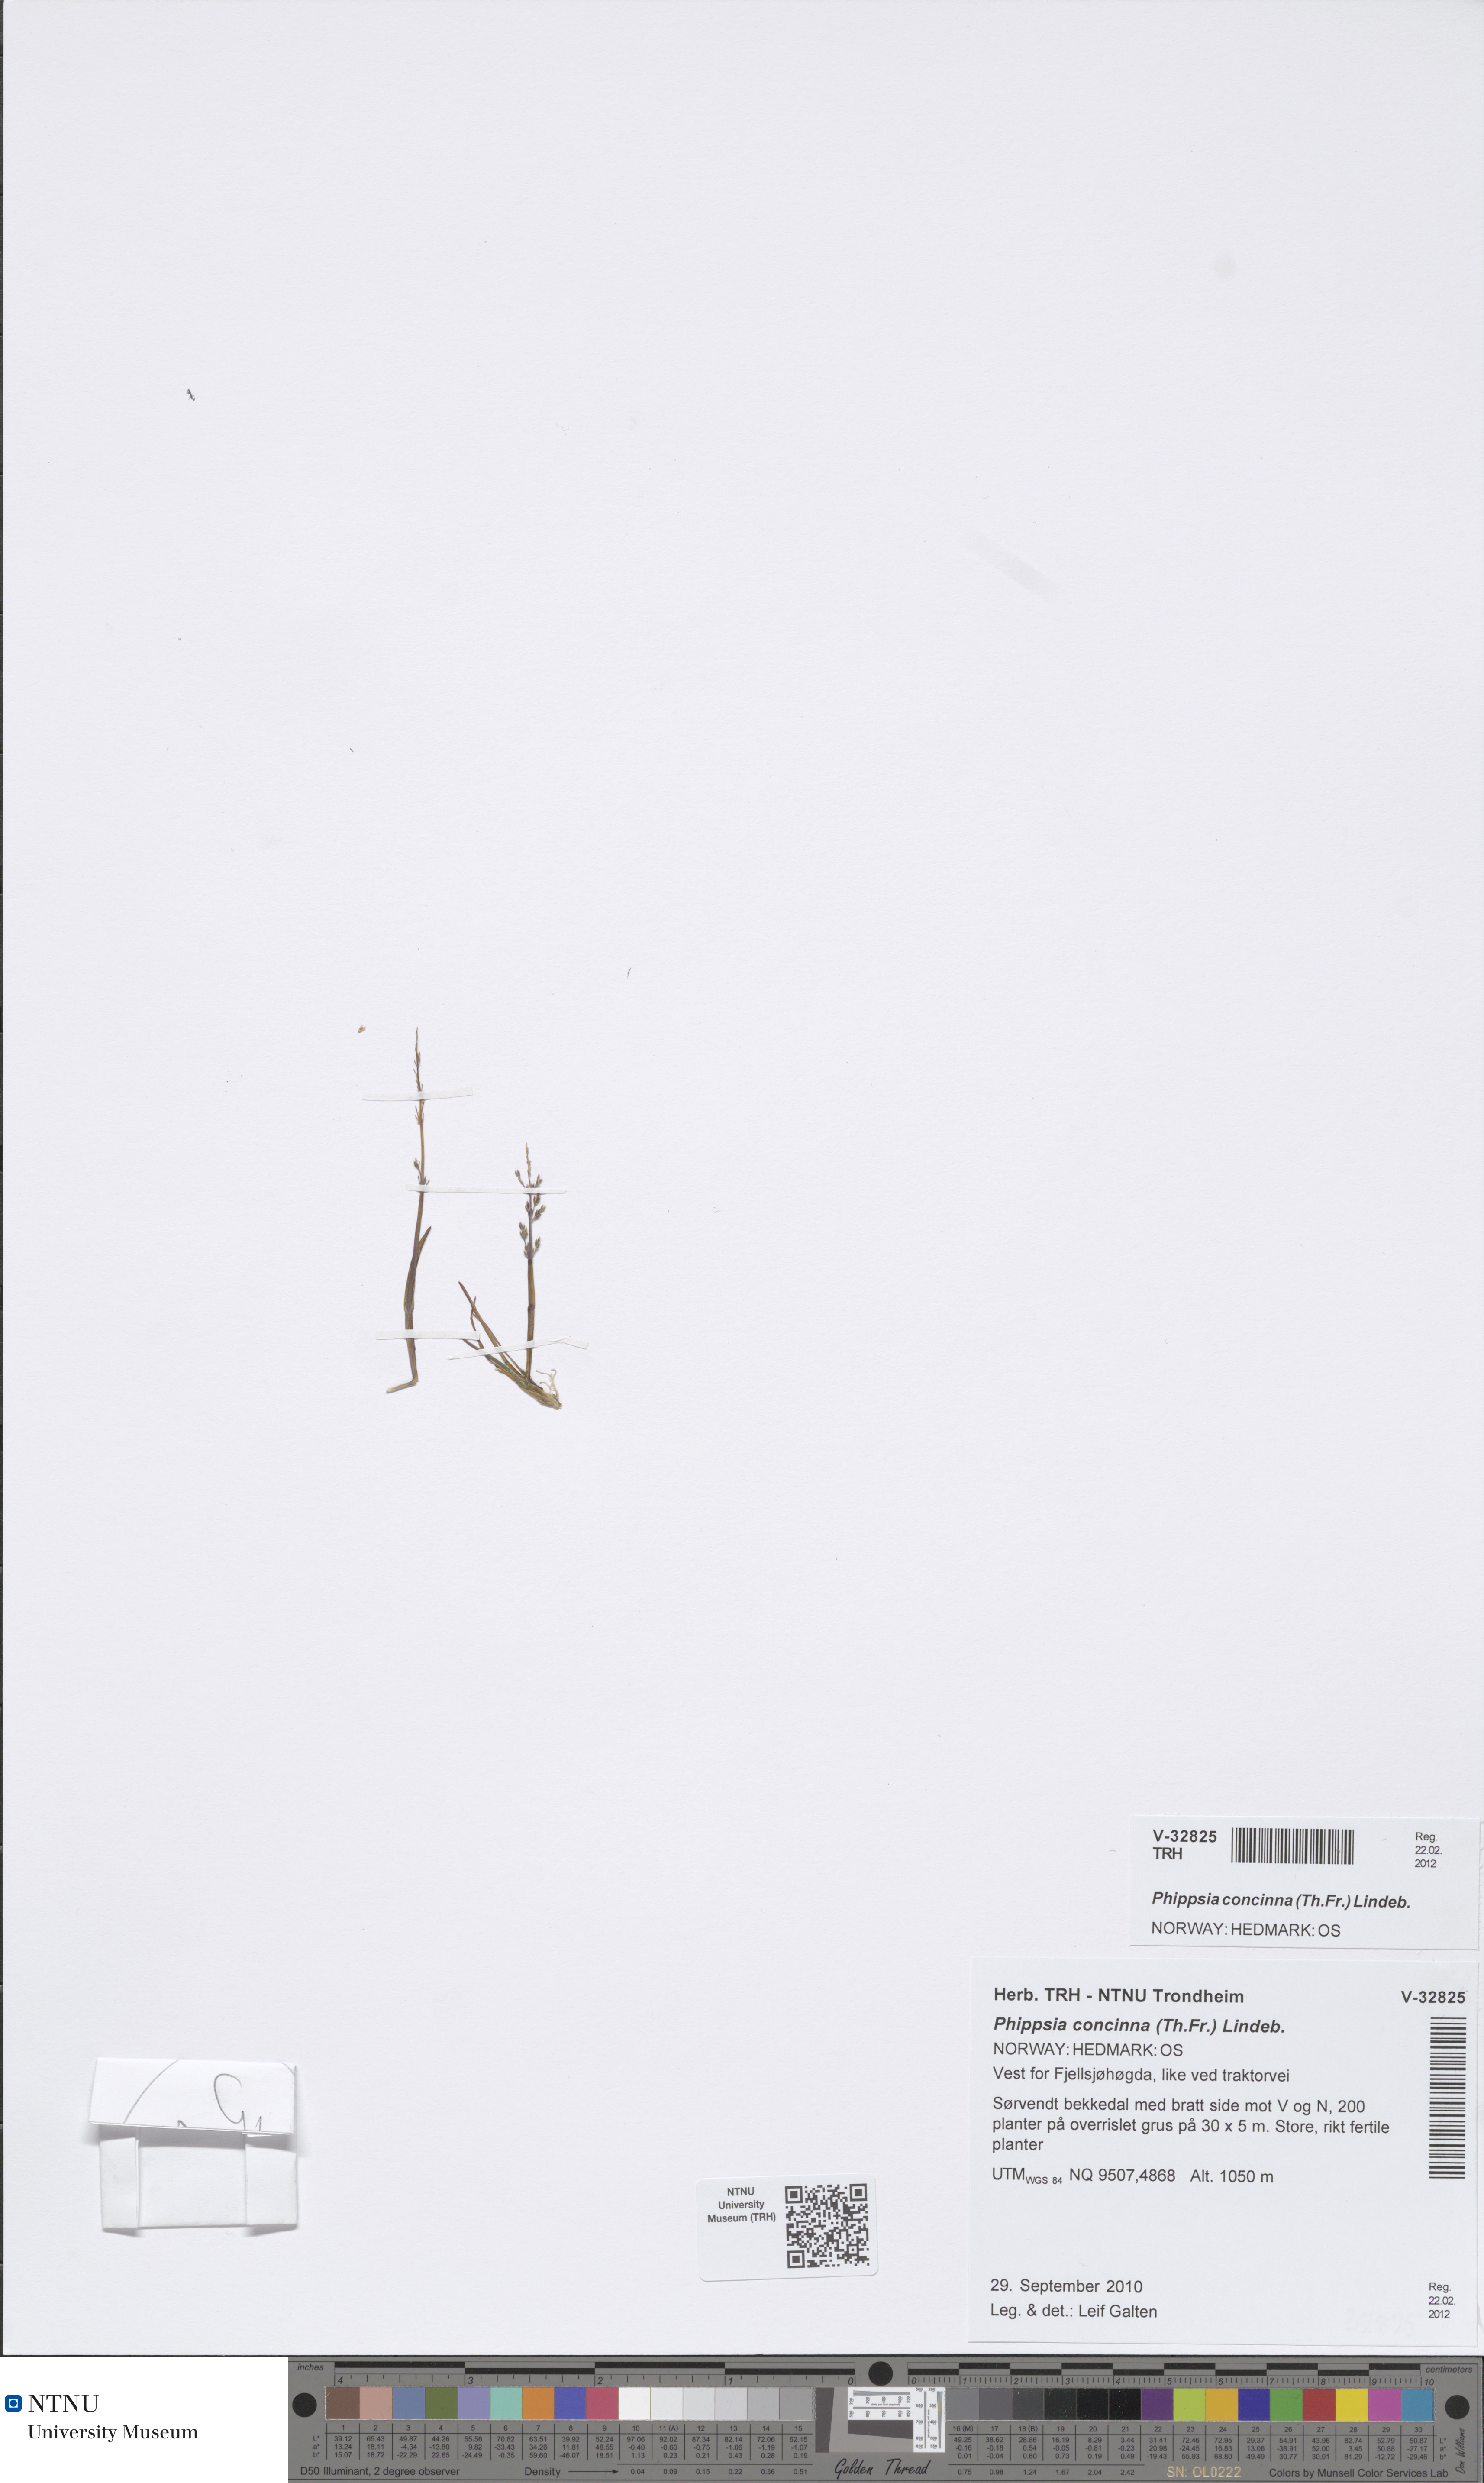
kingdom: Plantae
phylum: Tracheophyta
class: Liliopsida
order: Poales
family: Poaceae
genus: Phippsia
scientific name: Phippsia concinna
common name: Snowgrass
